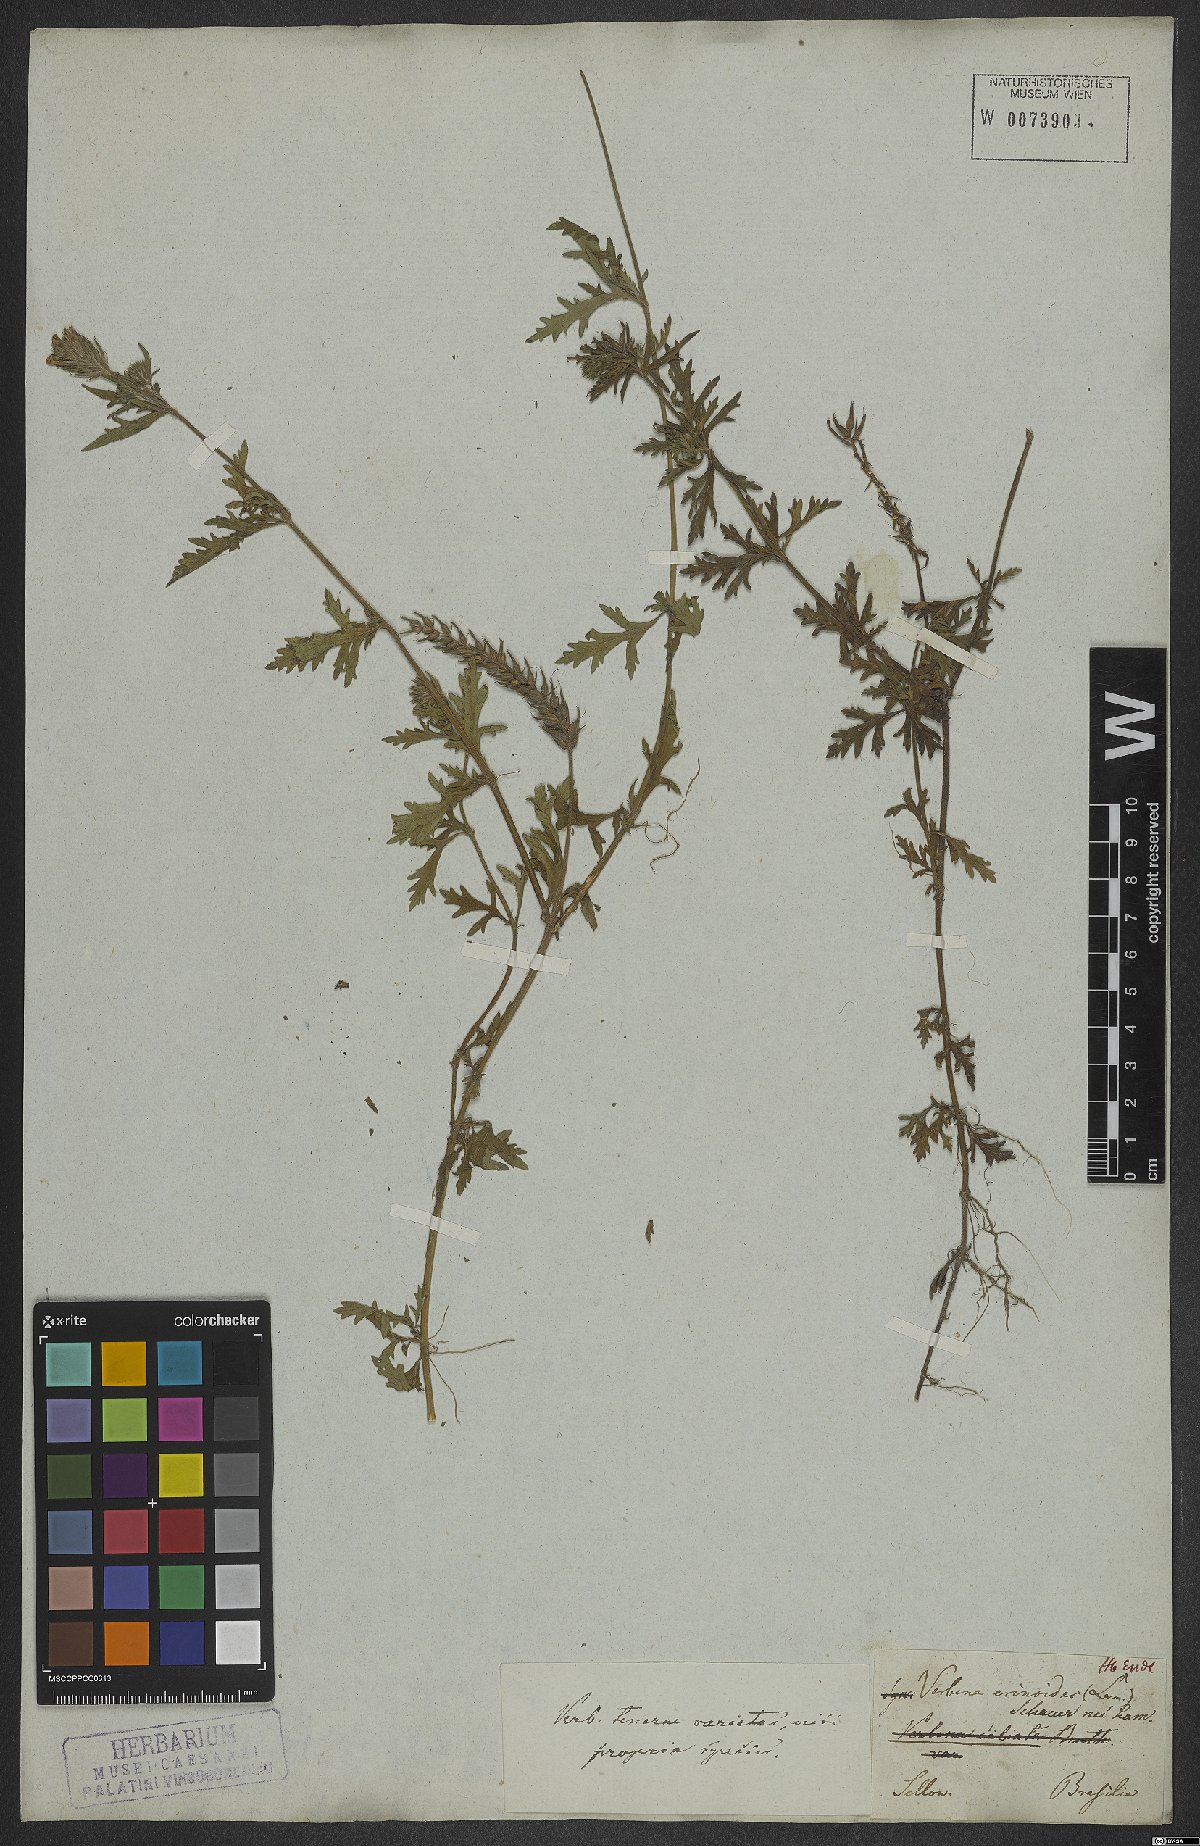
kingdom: Plantae
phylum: Tracheophyta
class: Magnoliopsida
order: Lamiales
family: Verbenaceae
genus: Verbena
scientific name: Verbena laciniata
